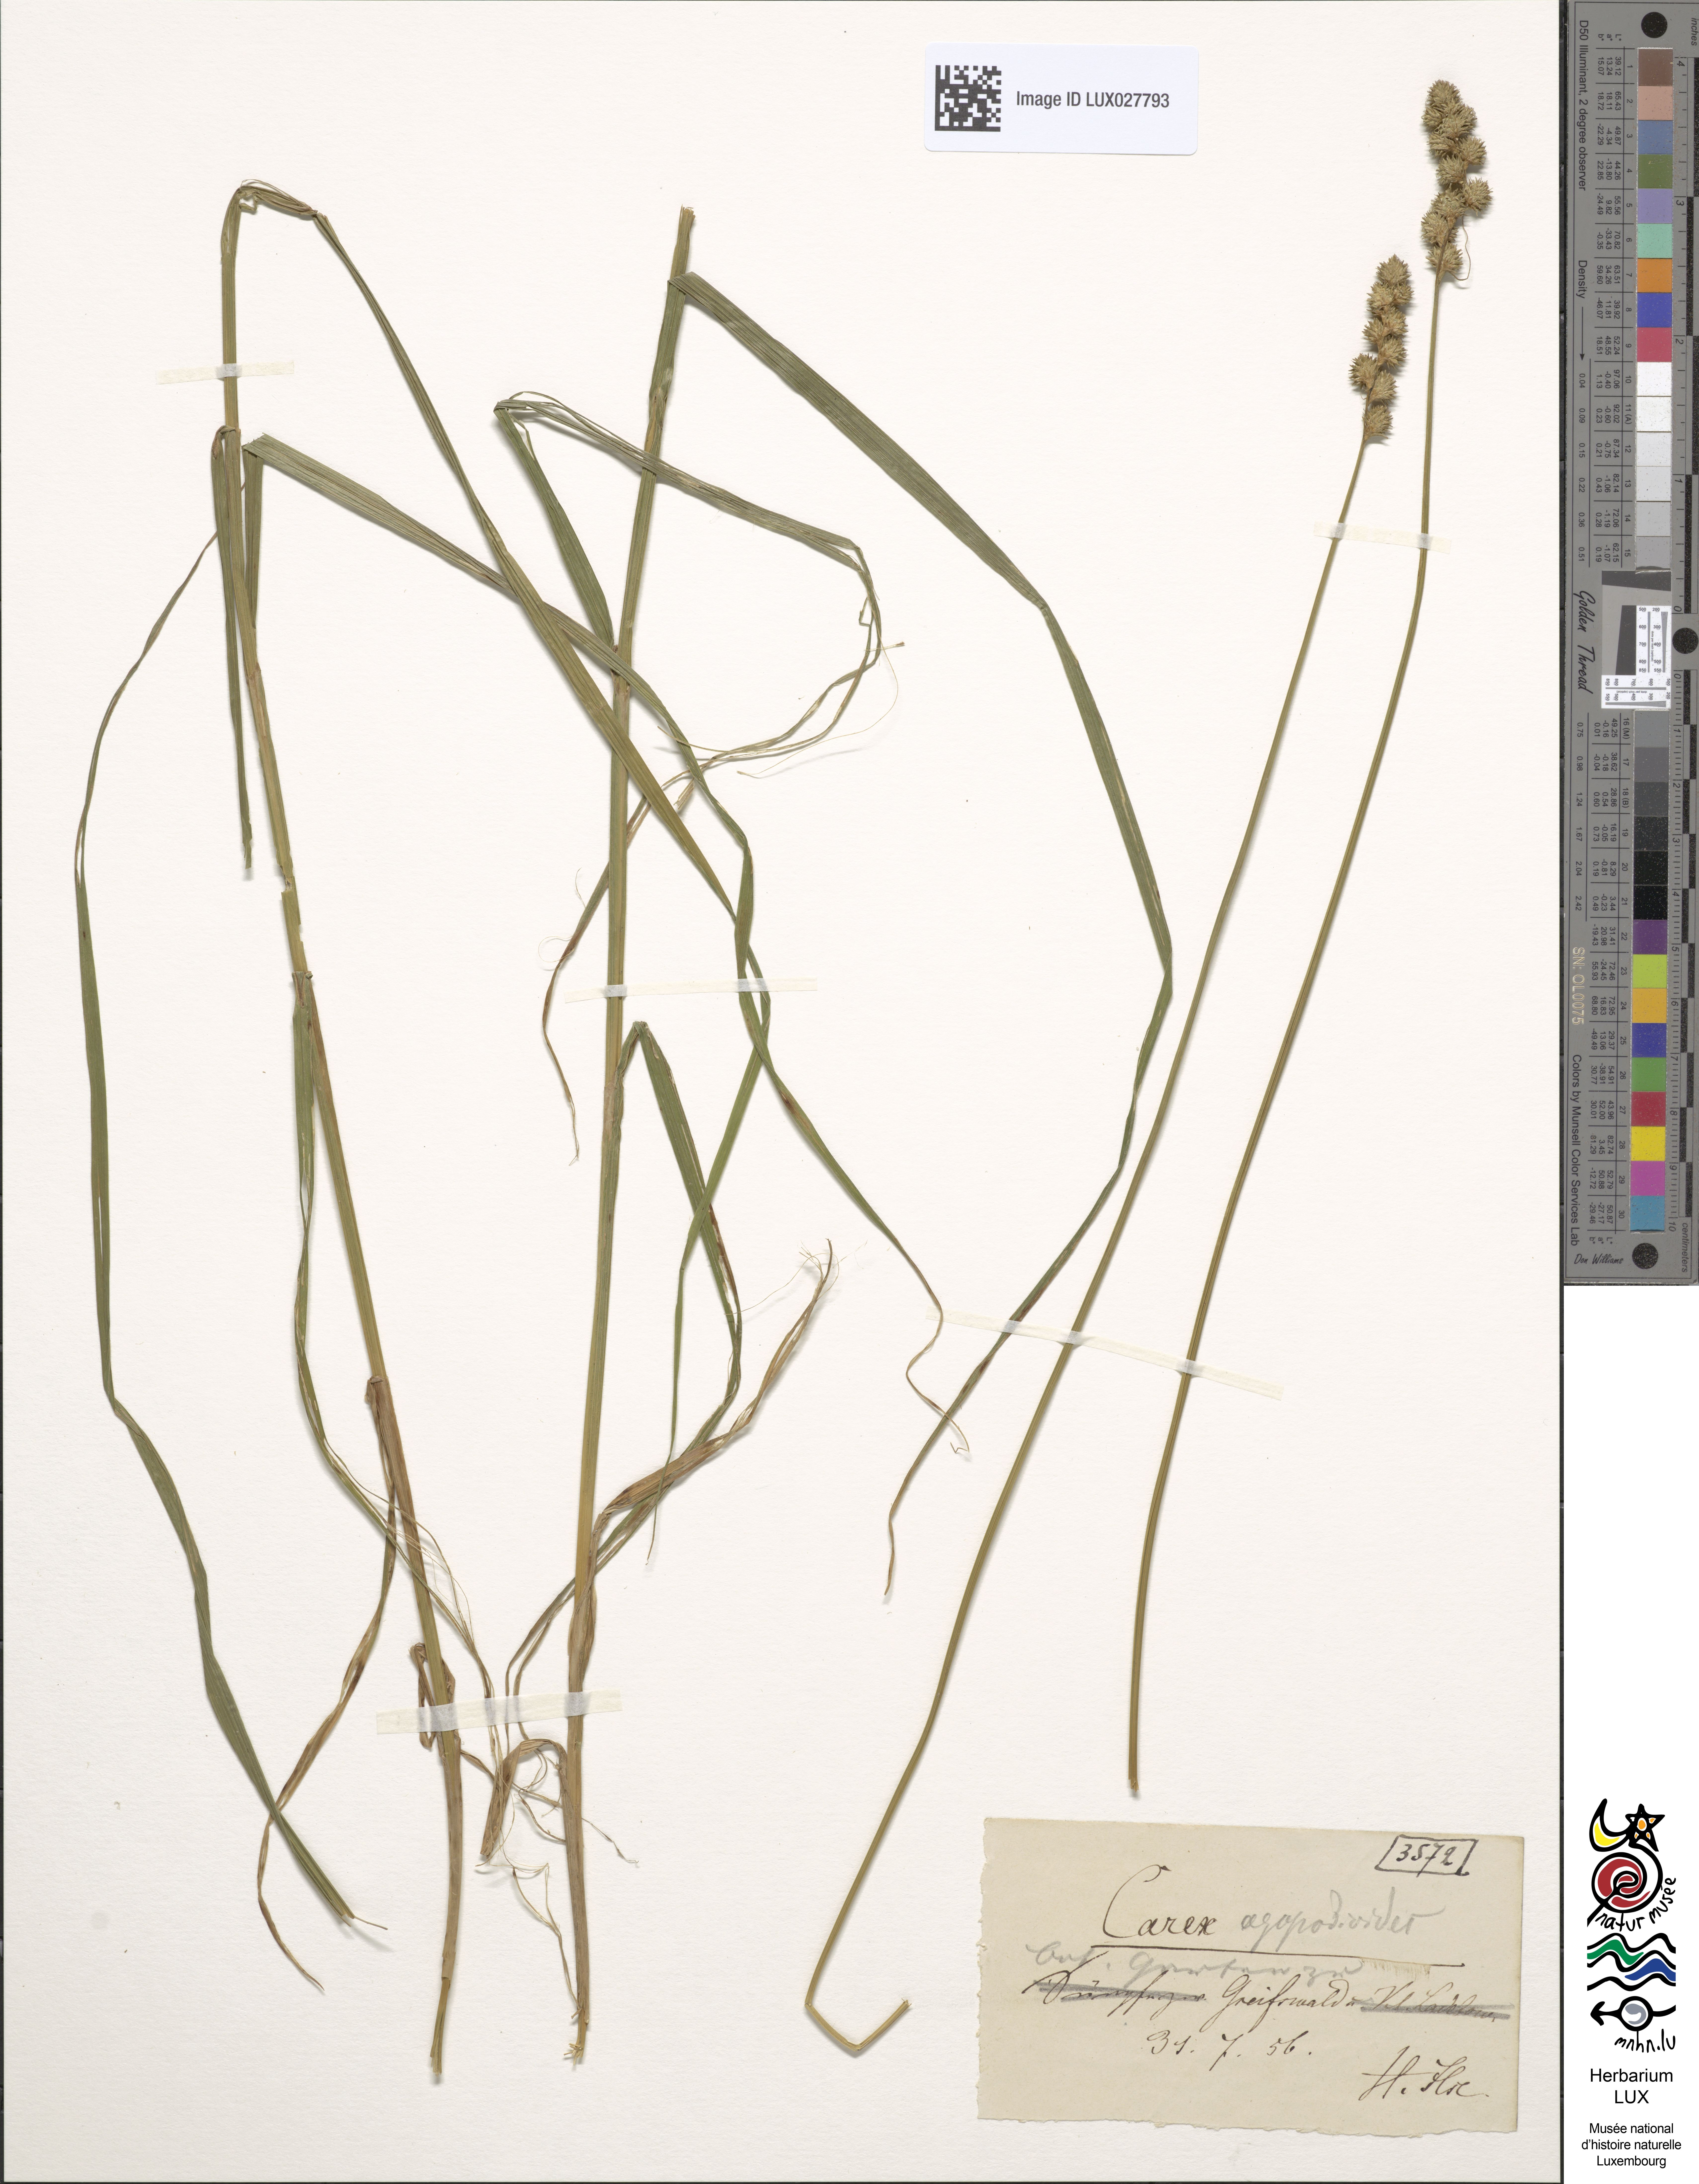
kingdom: Plantae
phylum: Tracheophyta
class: Liliopsida
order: Poales
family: Cyperaceae
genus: Carex
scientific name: Carex
